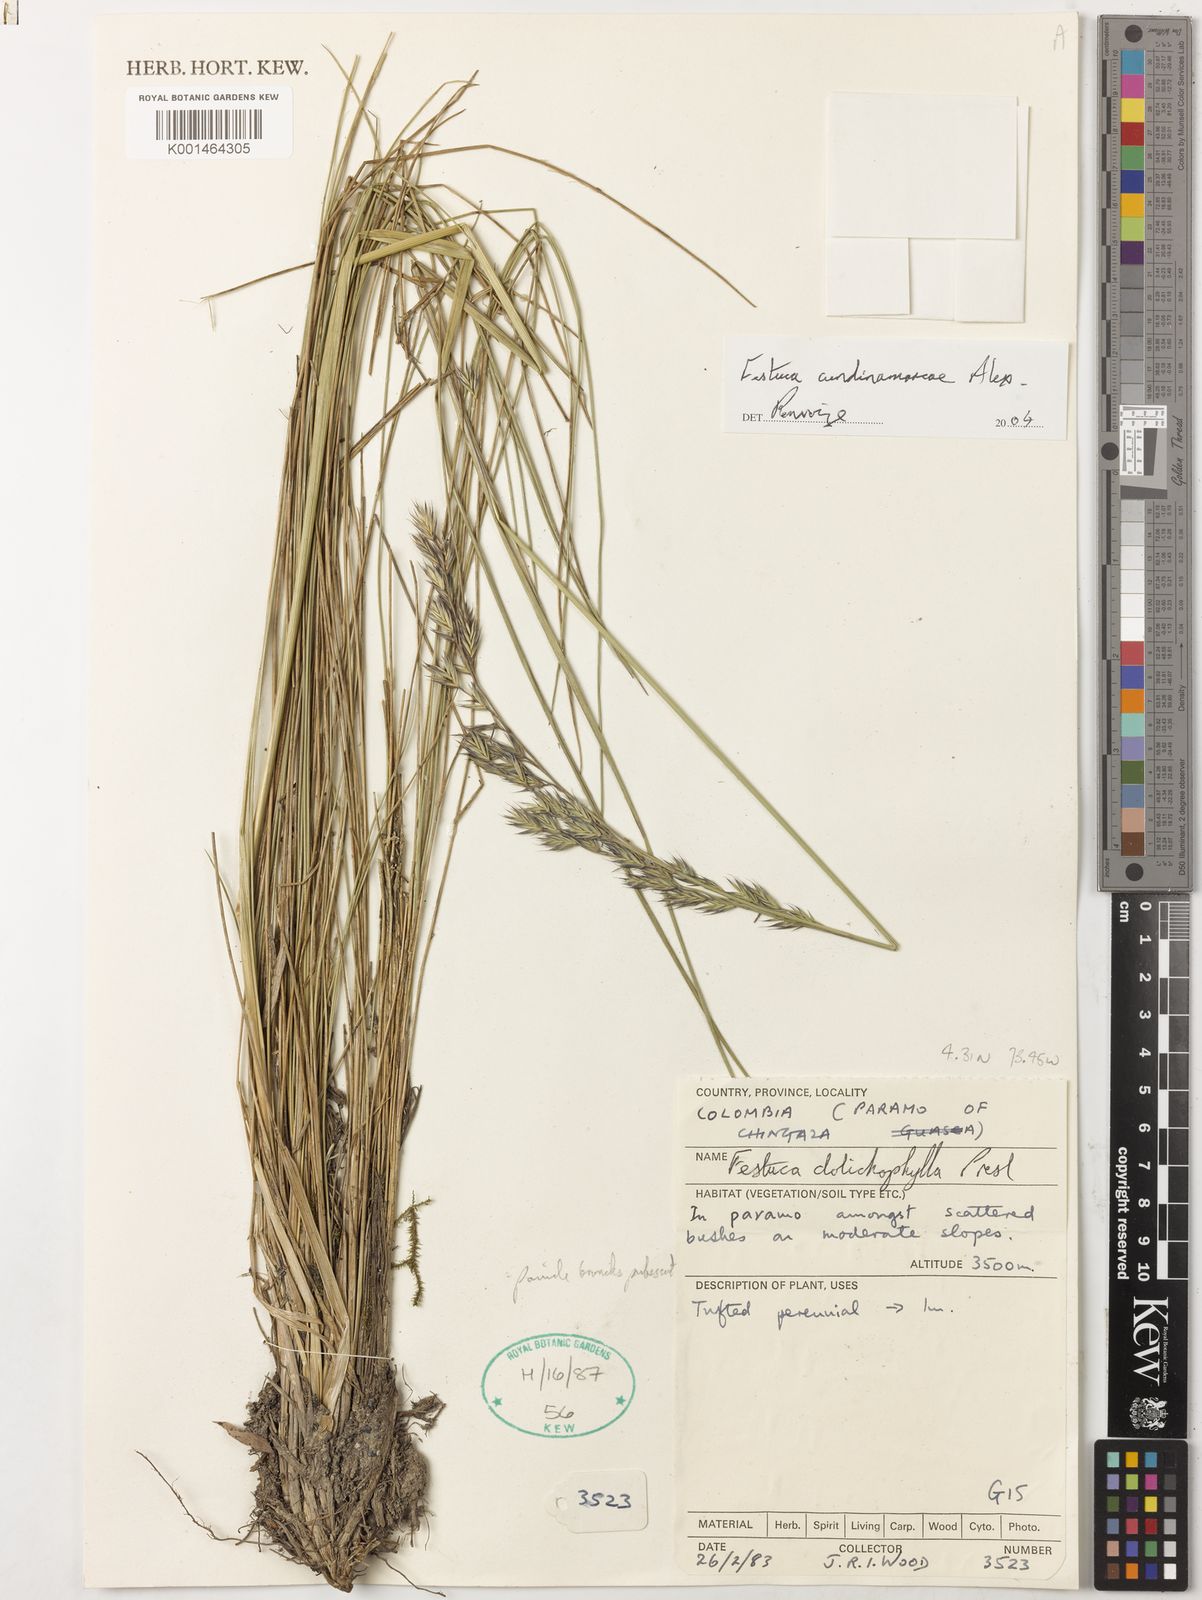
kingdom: Plantae
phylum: Tracheophyta
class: Liliopsida
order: Poales
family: Poaceae
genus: Festuca
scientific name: Festuca cundinamarcae
